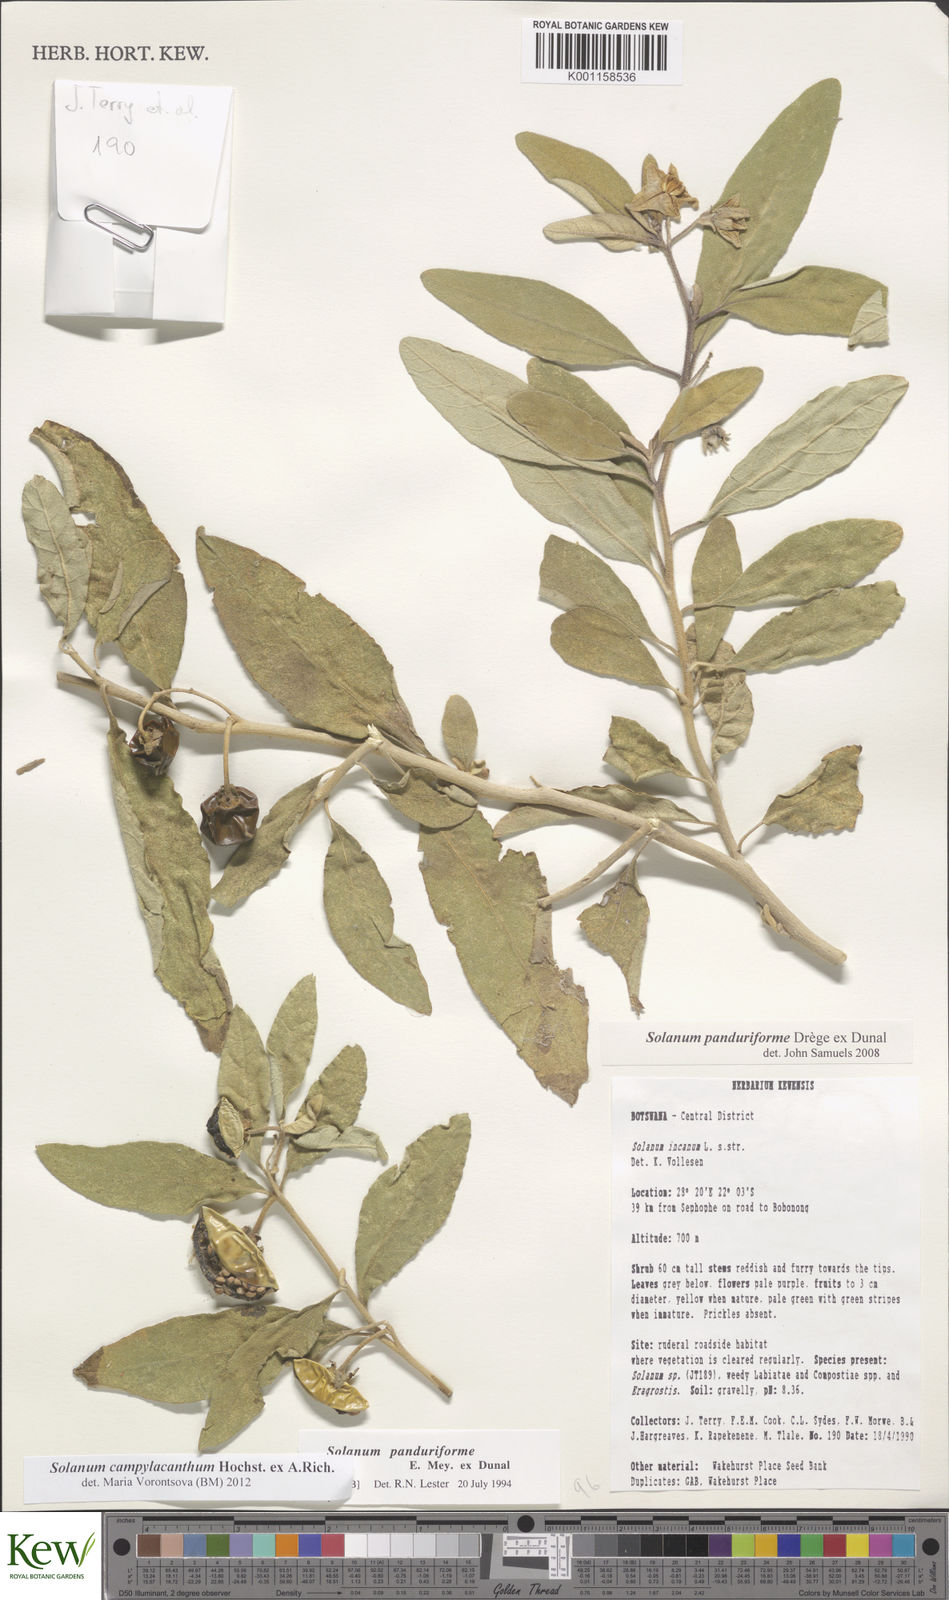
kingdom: Plantae
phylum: Tracheophyta
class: Magnoliopsida
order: Solanales
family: Solanaceae
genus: Solanum
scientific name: Solanum campylacanthum
